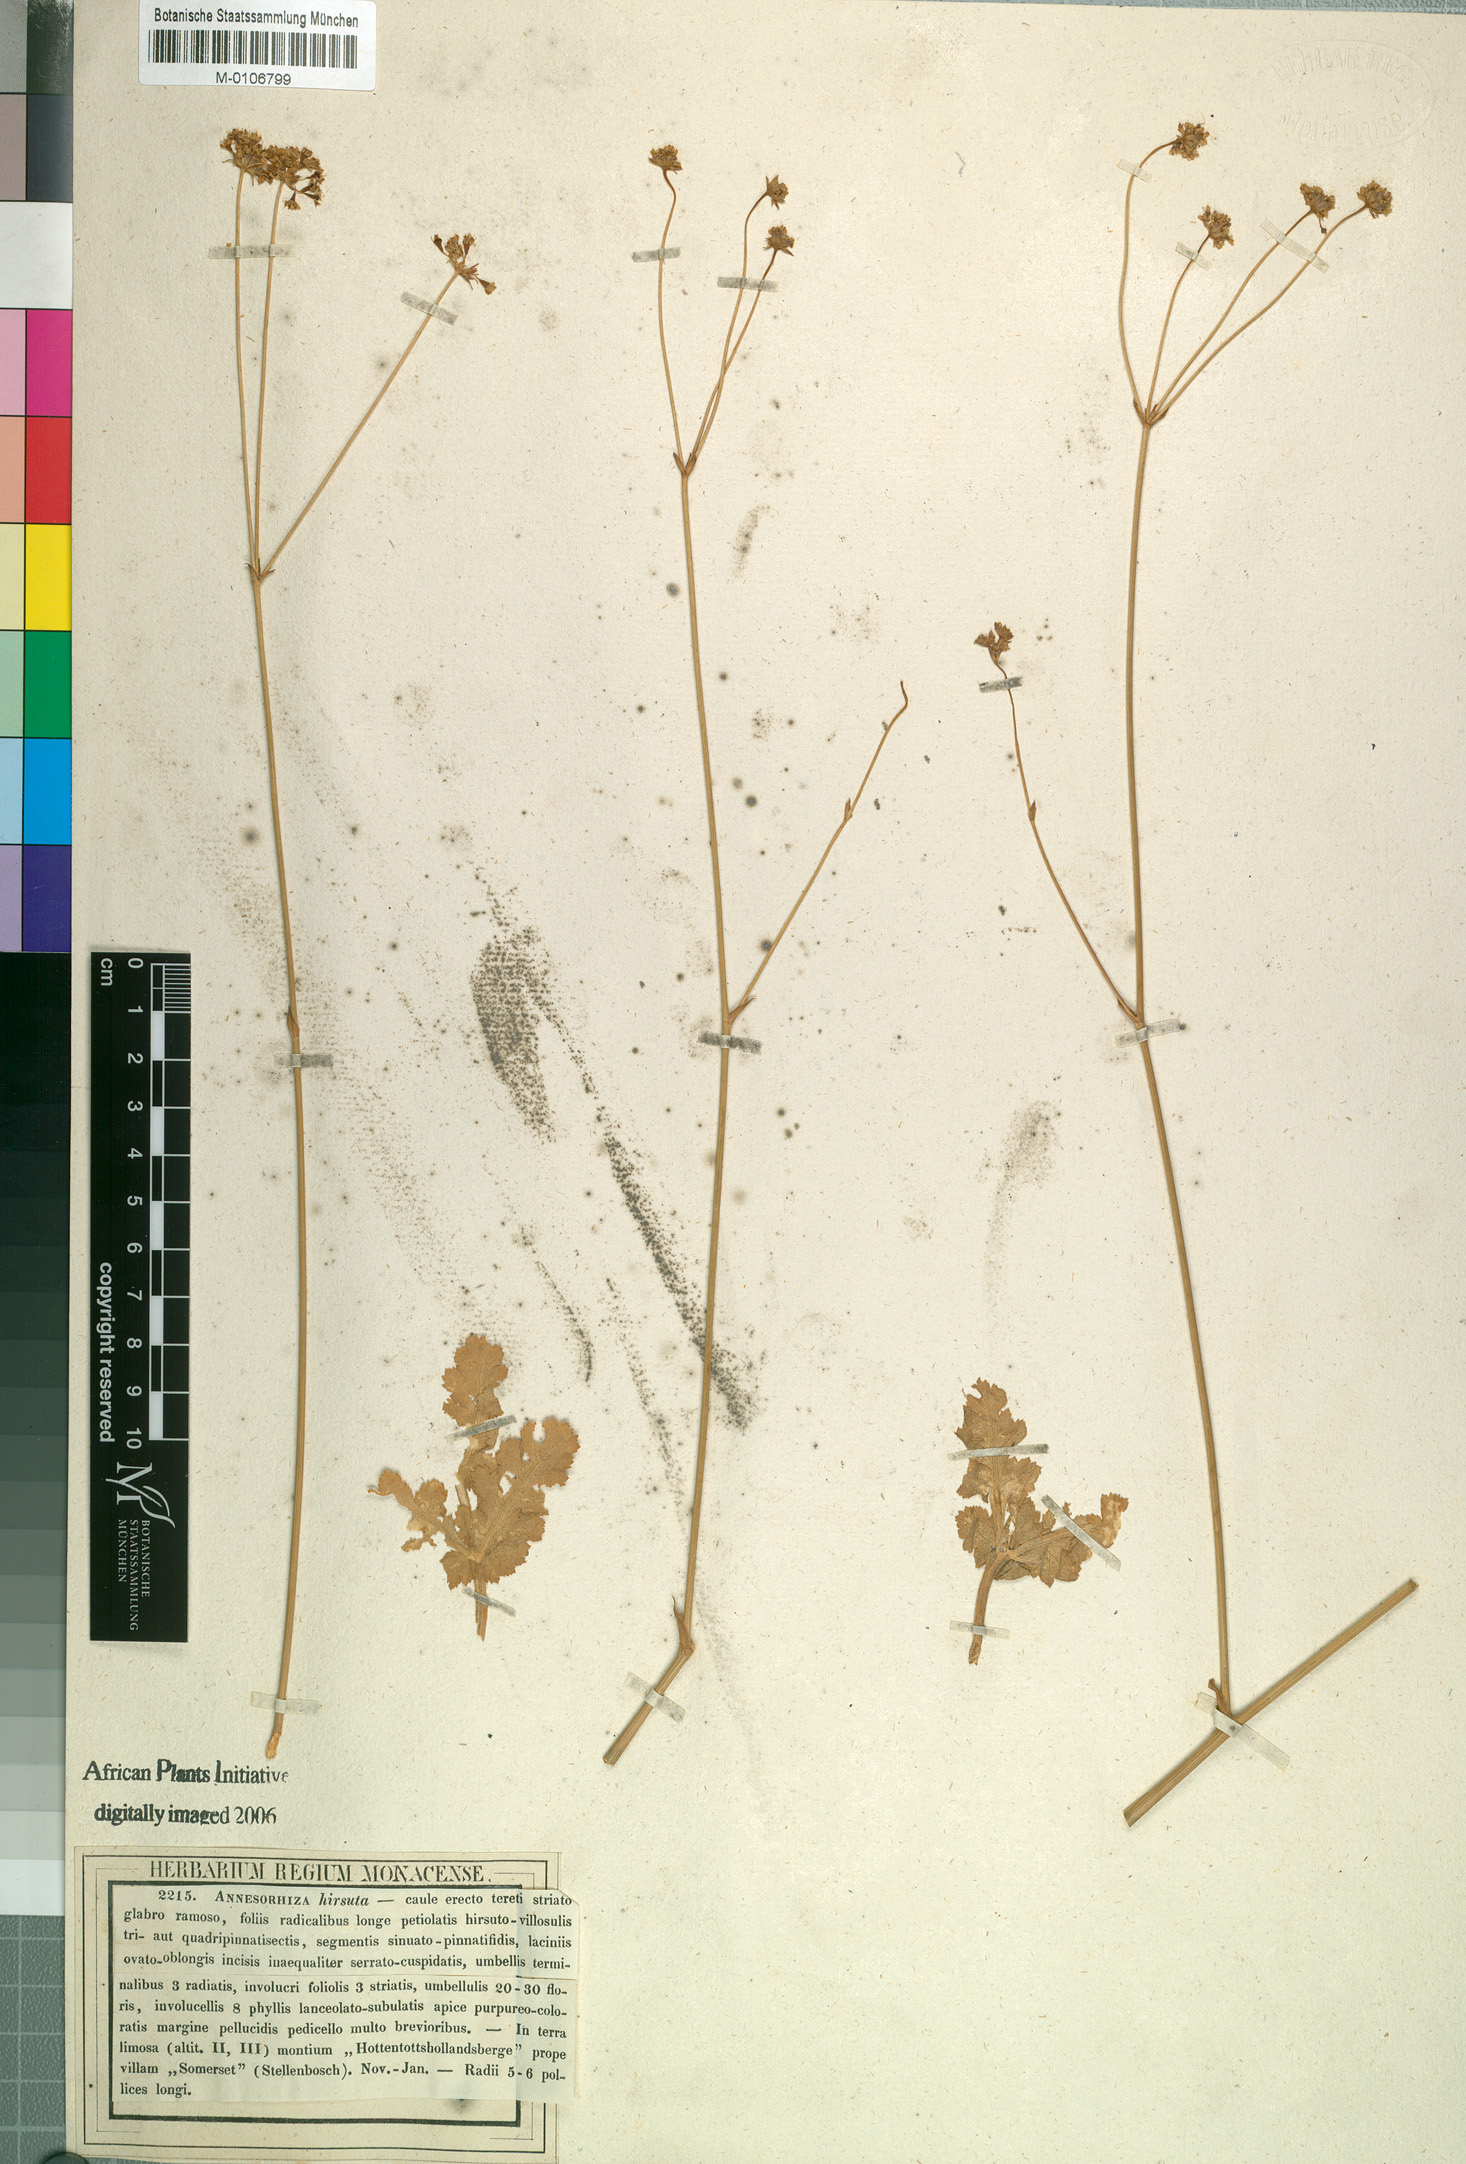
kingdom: Plantae
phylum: Tracheophyta
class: Magnoliopsida
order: Apiales
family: Apiaceae
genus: Annesorhiza
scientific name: Annesorhiza grandiflora
